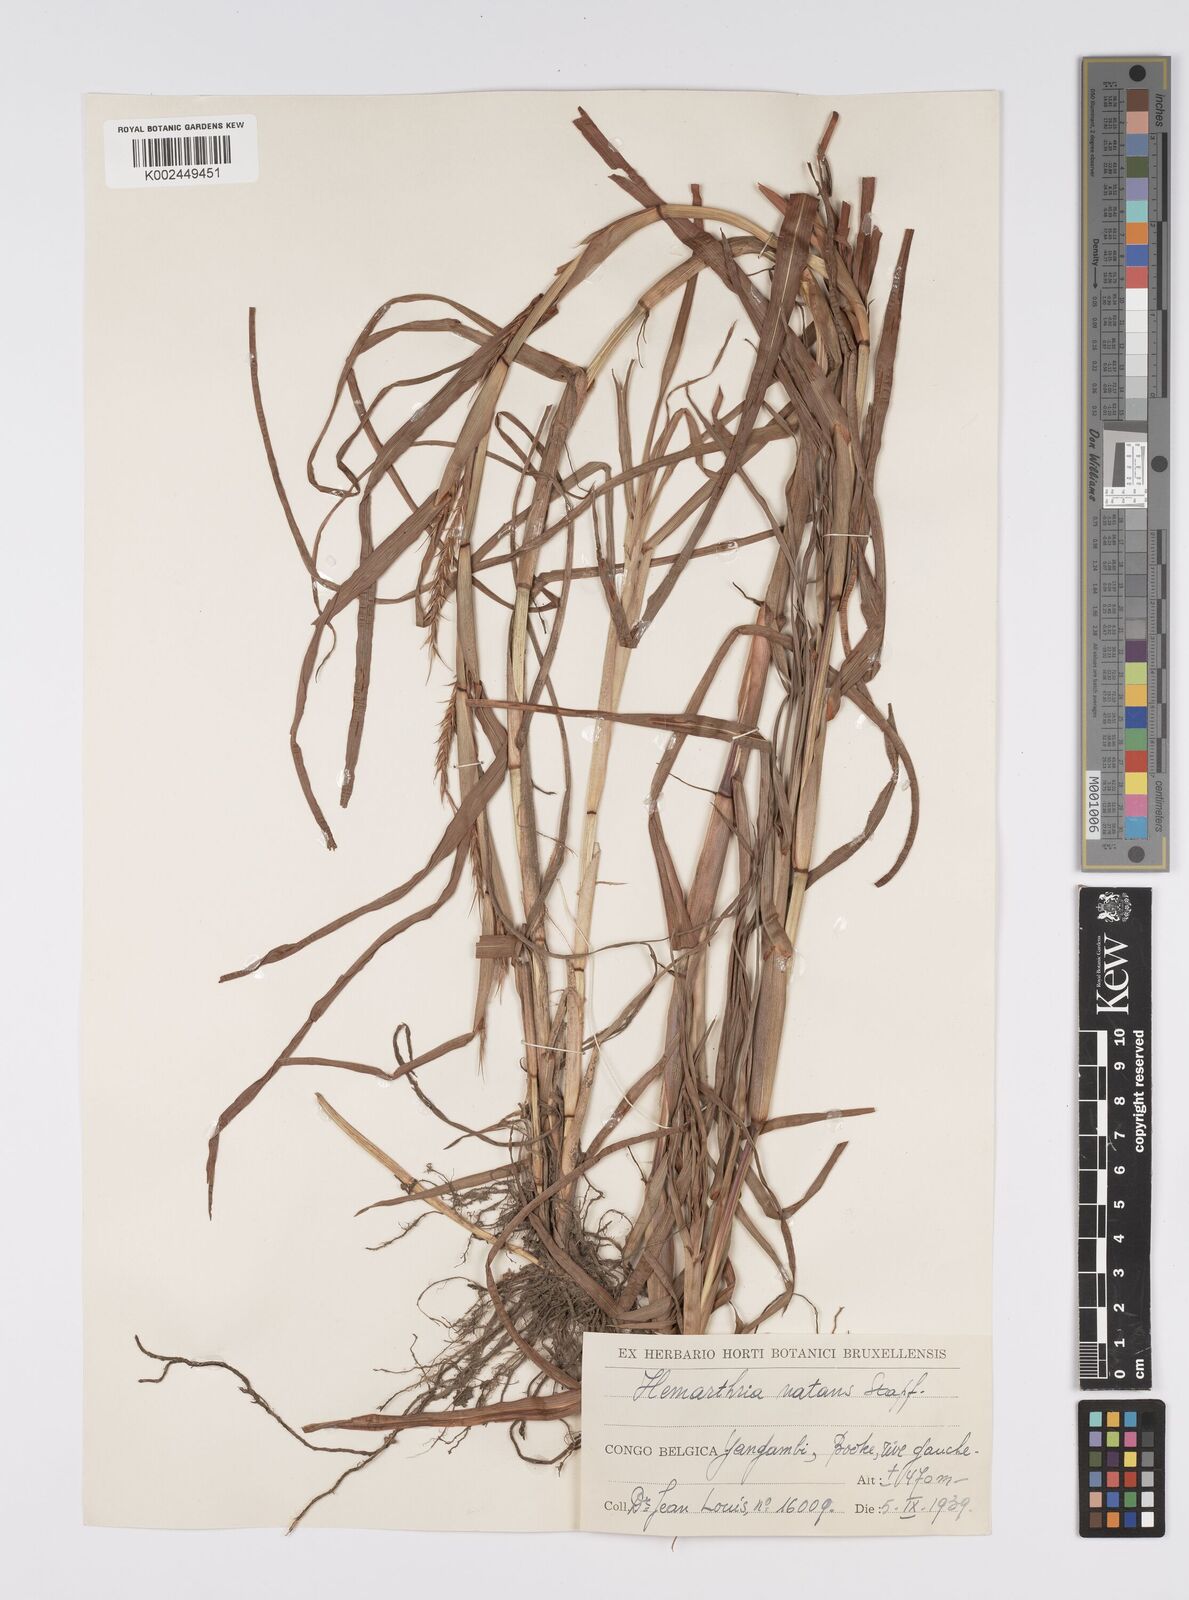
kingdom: Plantae
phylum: Tracheophyta
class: Liliopsida
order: Poales
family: Poaceae
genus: Hemarthria
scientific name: Hemarthria natans
